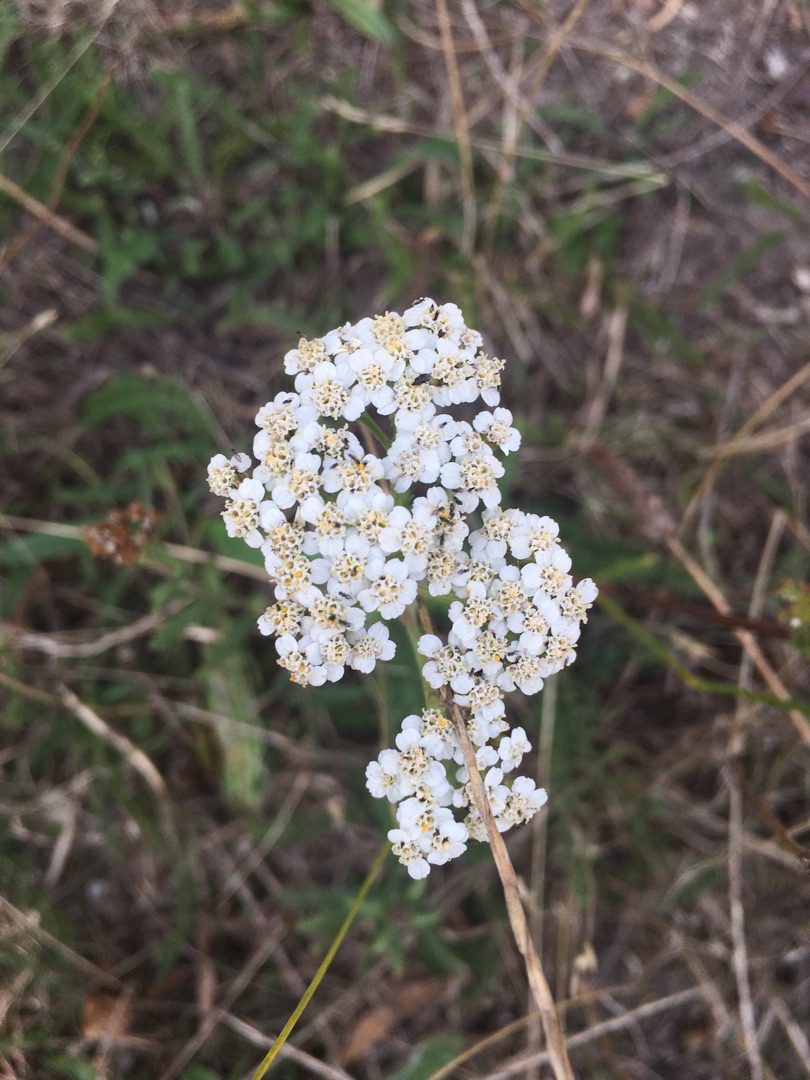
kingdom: Plantae
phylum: Tracheophyta
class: Magnoliopsida
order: Asterales
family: Asteraceae
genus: Achillea
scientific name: Achillea millefolium
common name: Almindelig røllike
